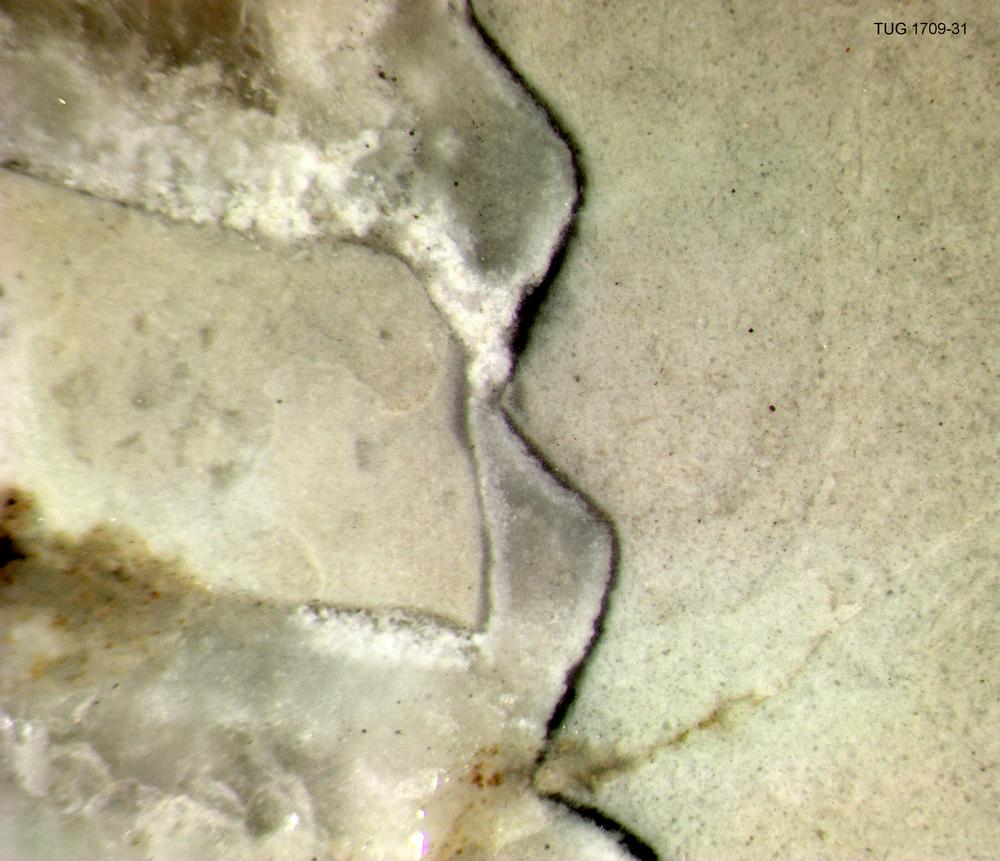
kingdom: Animalia
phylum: Mollusca
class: Cephalopoda
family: Cyrtocerinidae
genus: Rummoceras
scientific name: Rummoceras rummuensis
